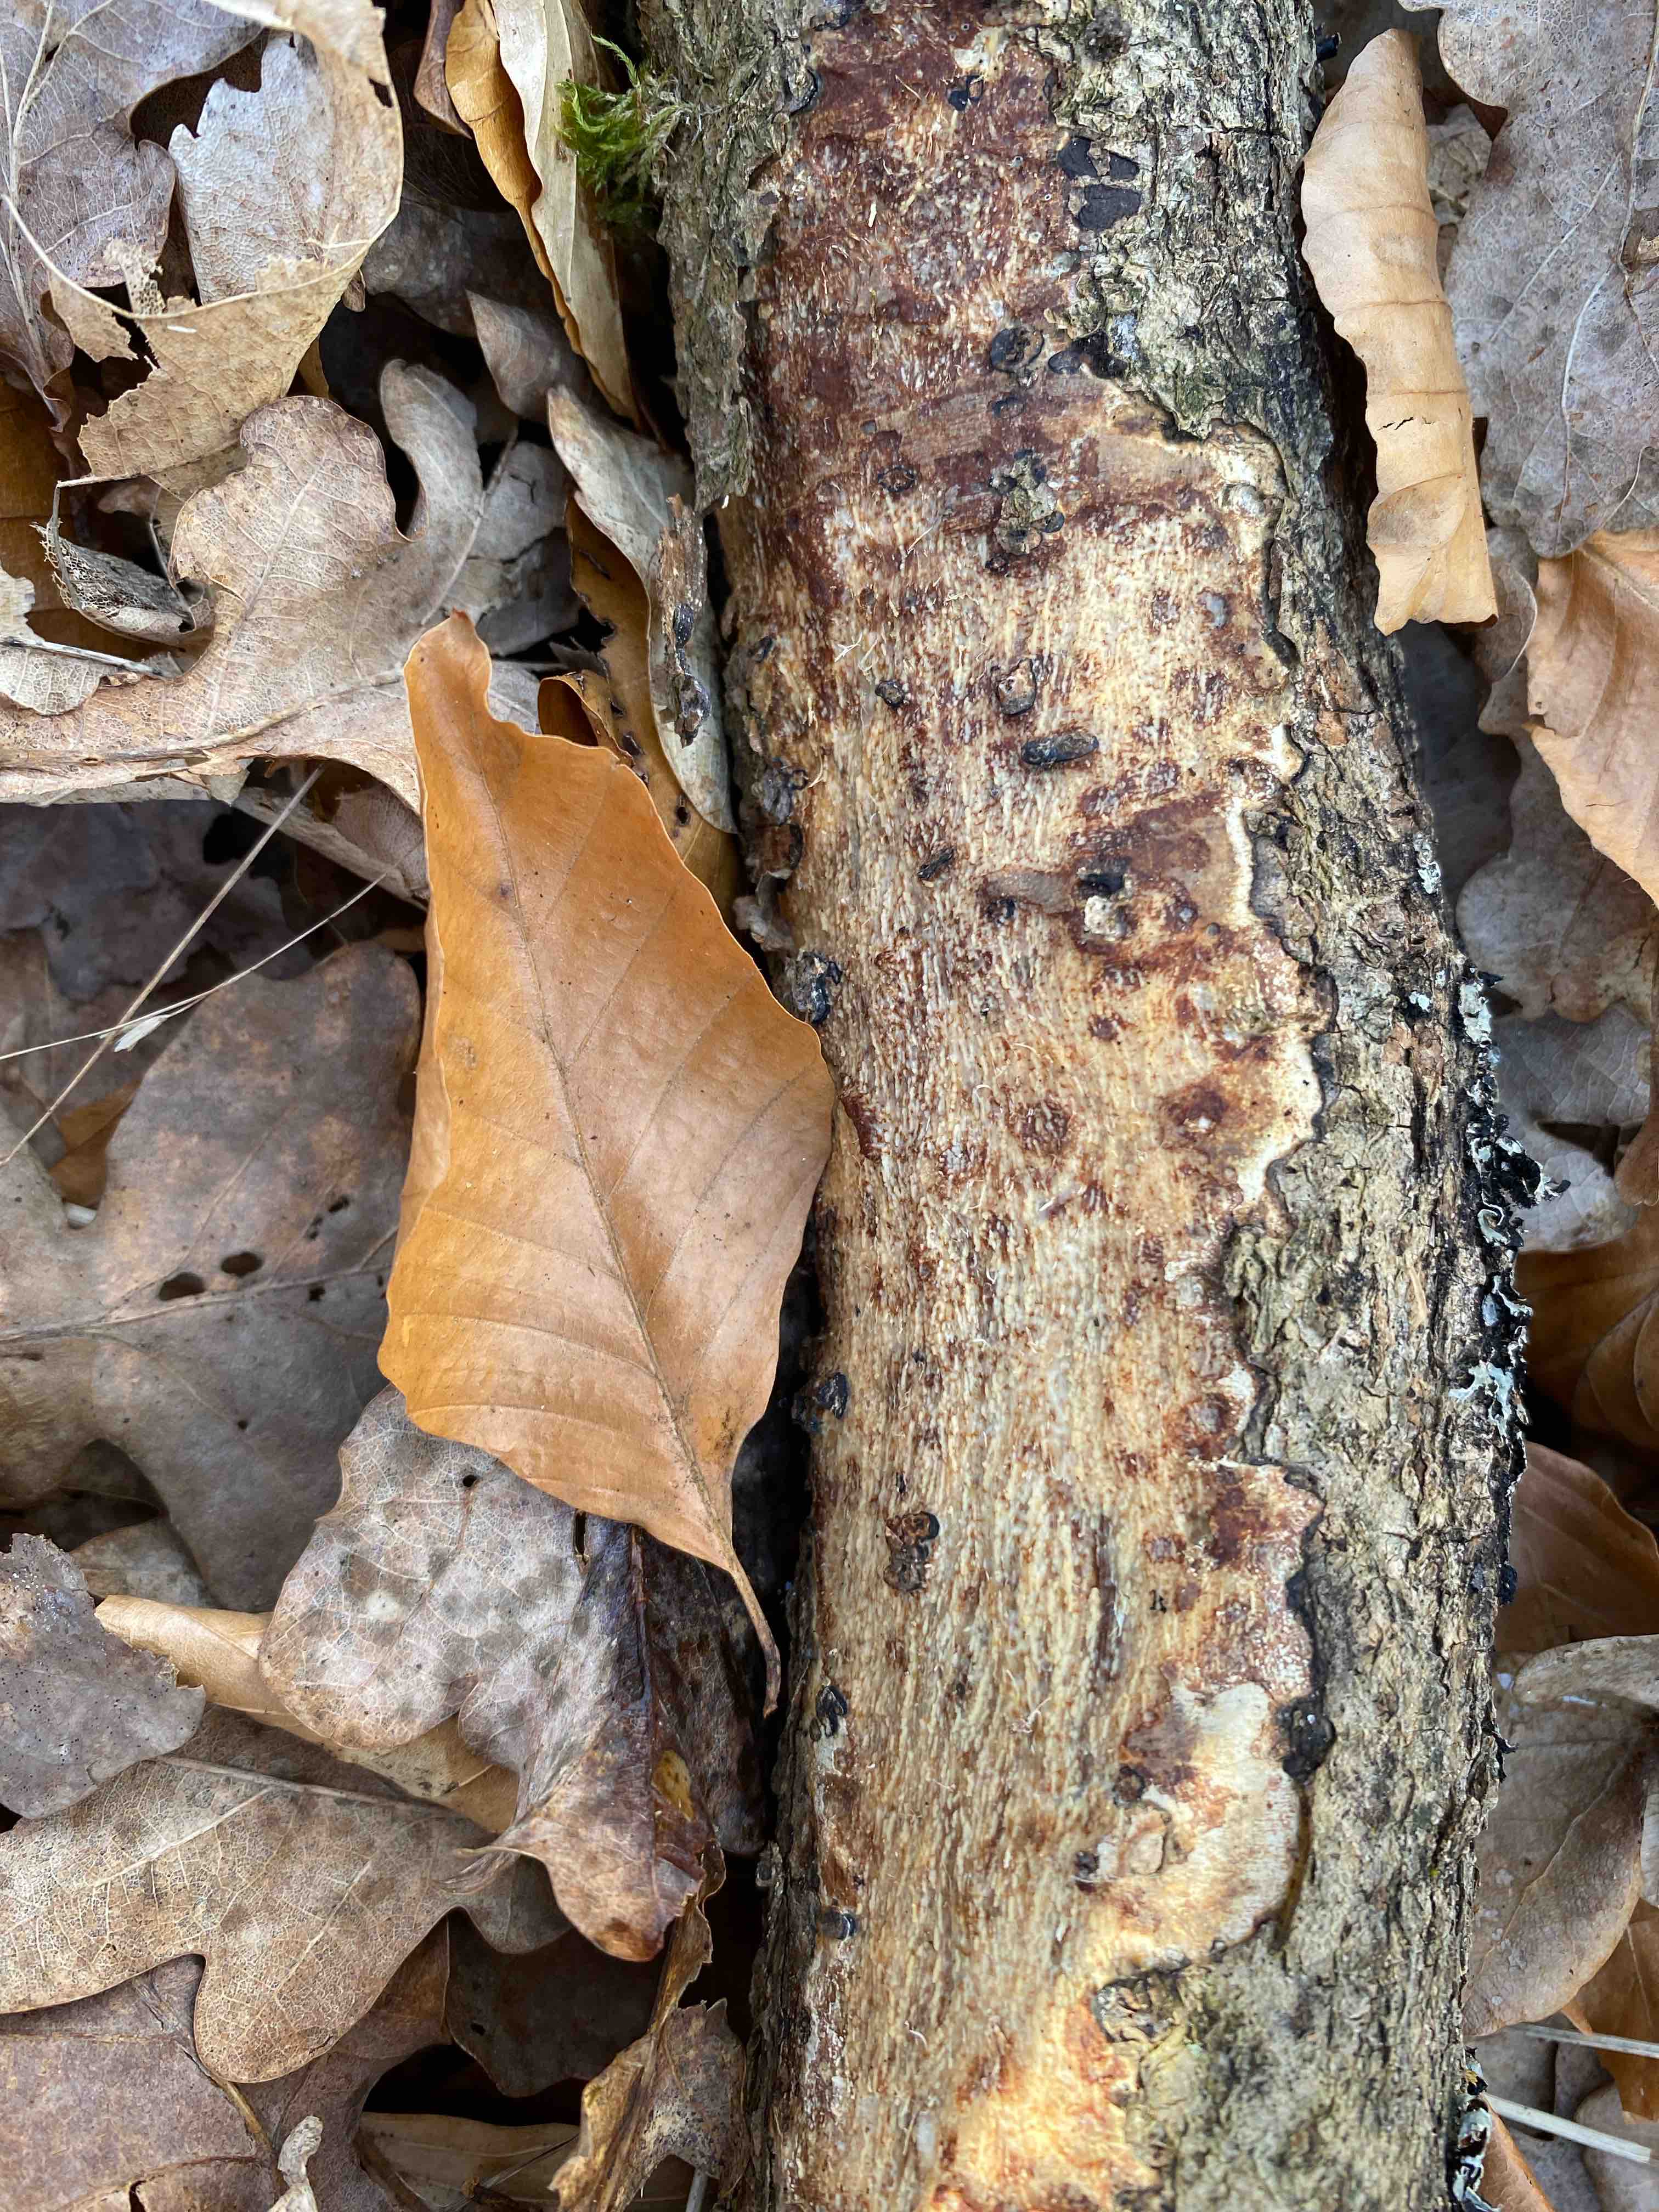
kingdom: Fungi
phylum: Basidiomycota
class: Agaricomycetes
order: Corticiales
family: Vuilleminiaceae
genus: Vuilleminia
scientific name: Vuilleminia comedens
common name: almindelig barksprænger
